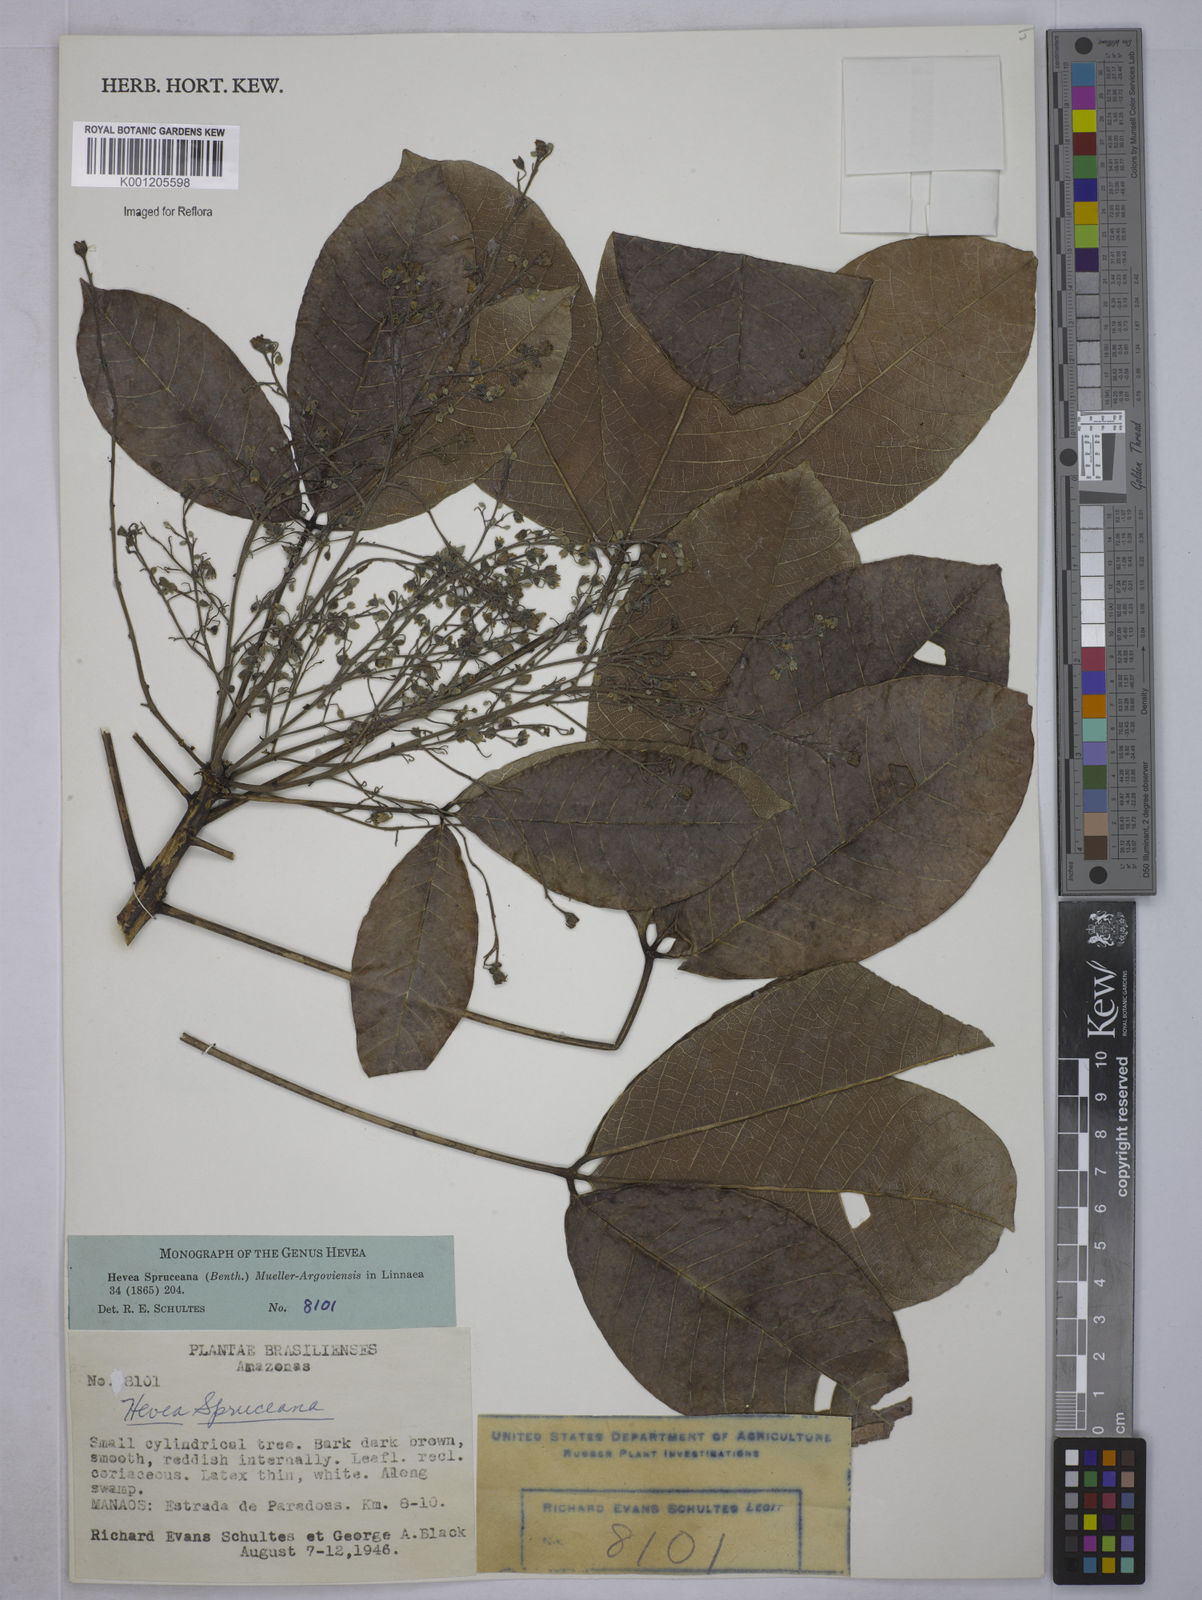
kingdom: Plantae
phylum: Tracheophyta
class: Magnoliopsida
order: Malpighiales
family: Euphorbiaceae
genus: Hevea
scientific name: Hevea
